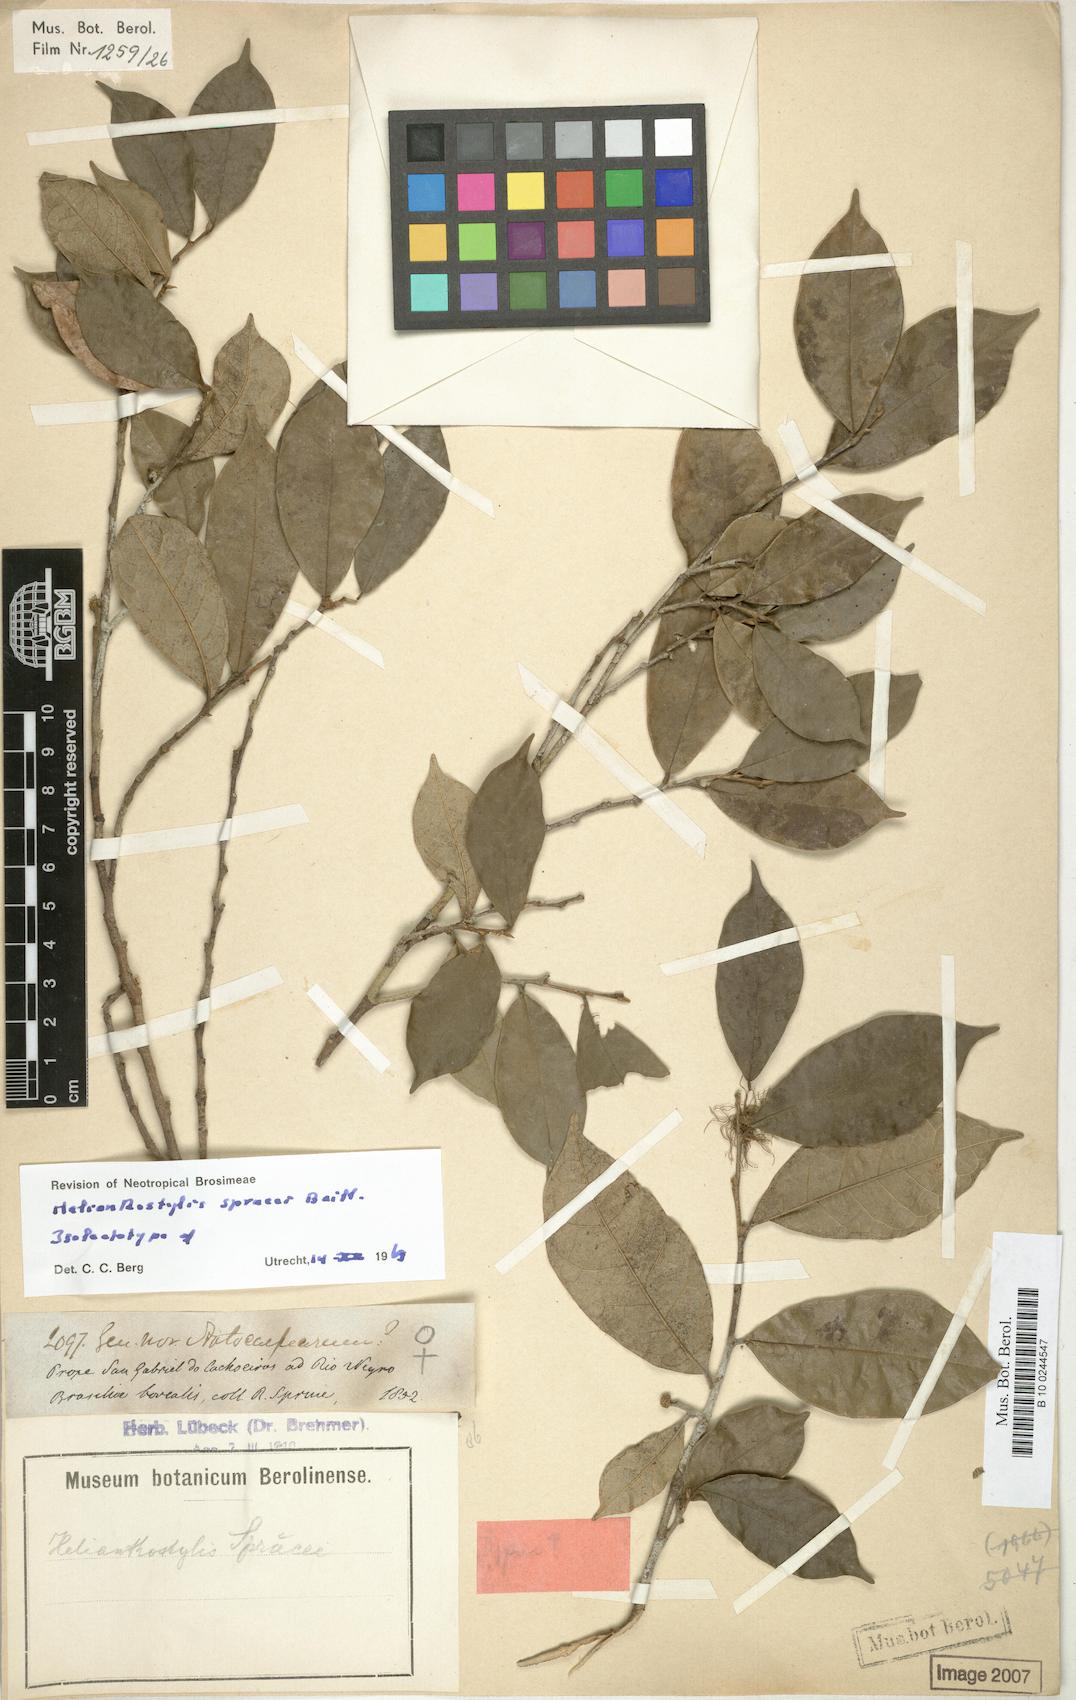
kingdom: Plantae
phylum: Tracheophyta
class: Magnoliopsida
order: Rosales
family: Moraceae
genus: Brosimum
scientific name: Brosimum sprucei
